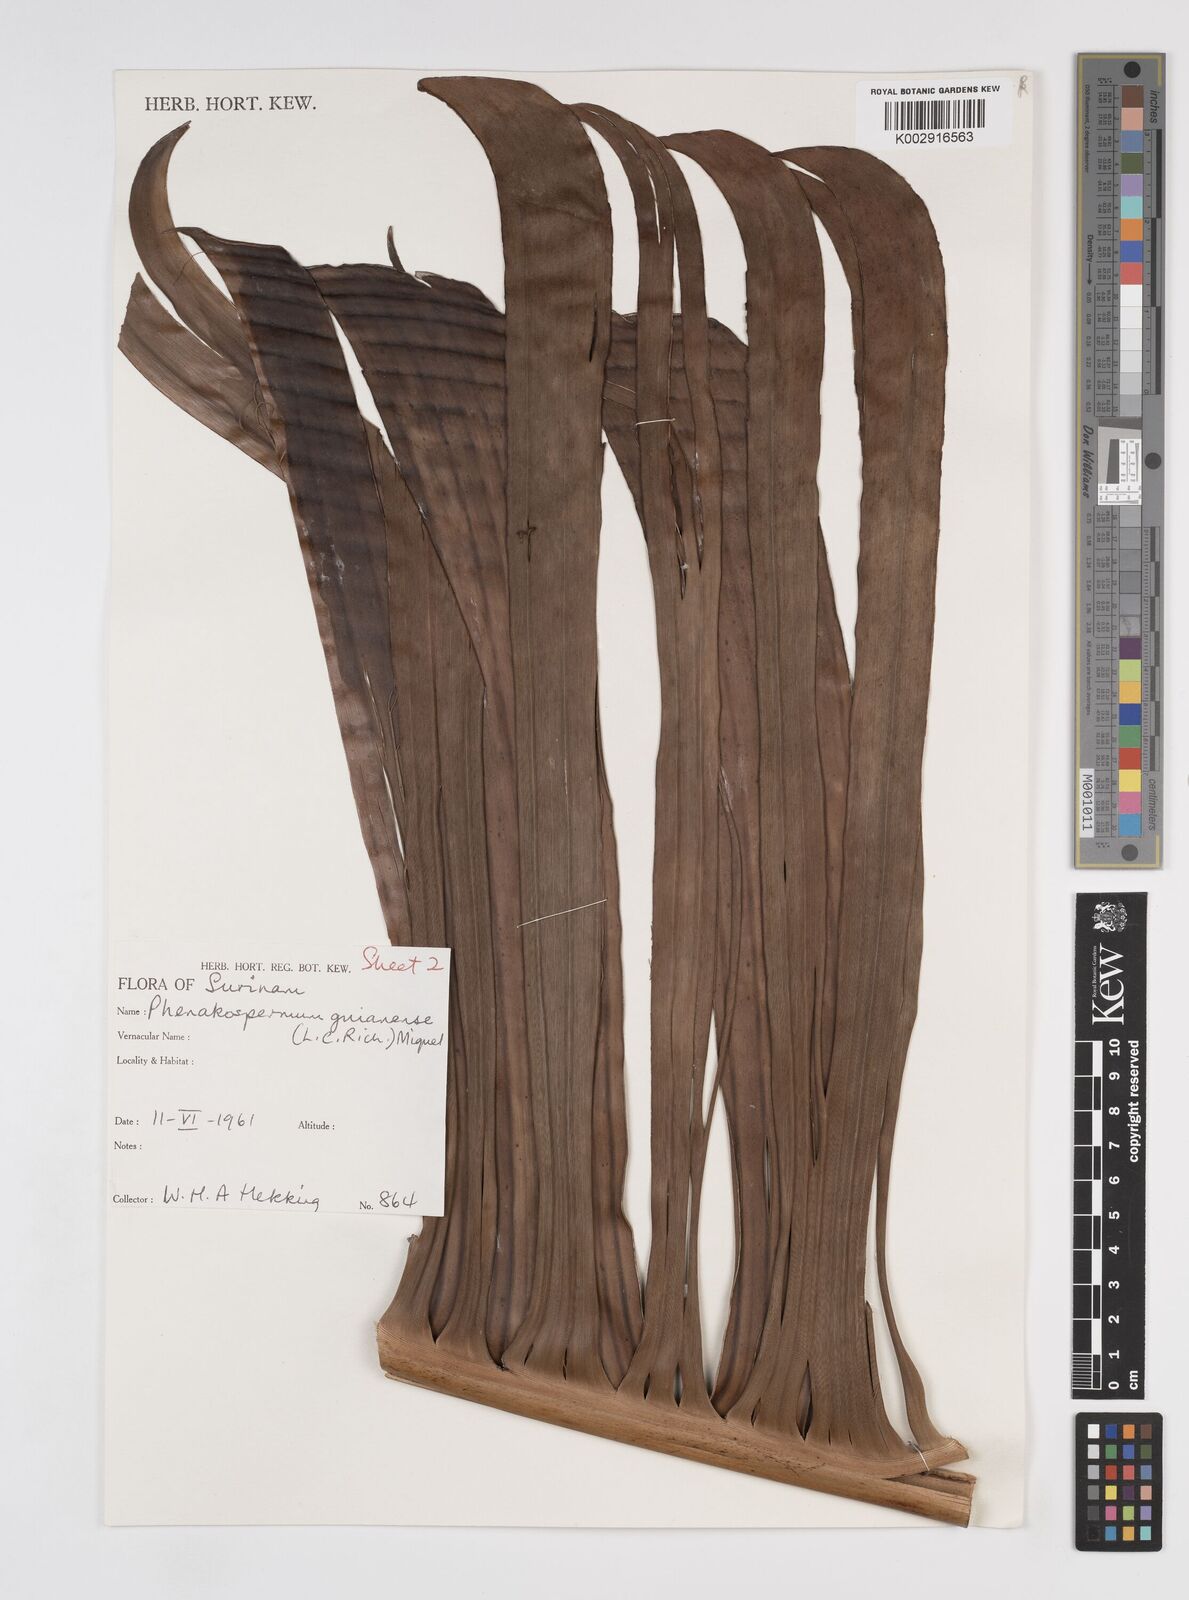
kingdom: Plantae
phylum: Tracheophyta
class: Liliopsida
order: Zingiberales
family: Strelitziaceae
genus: Phenakospermum
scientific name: Phenakospermum guyannense
